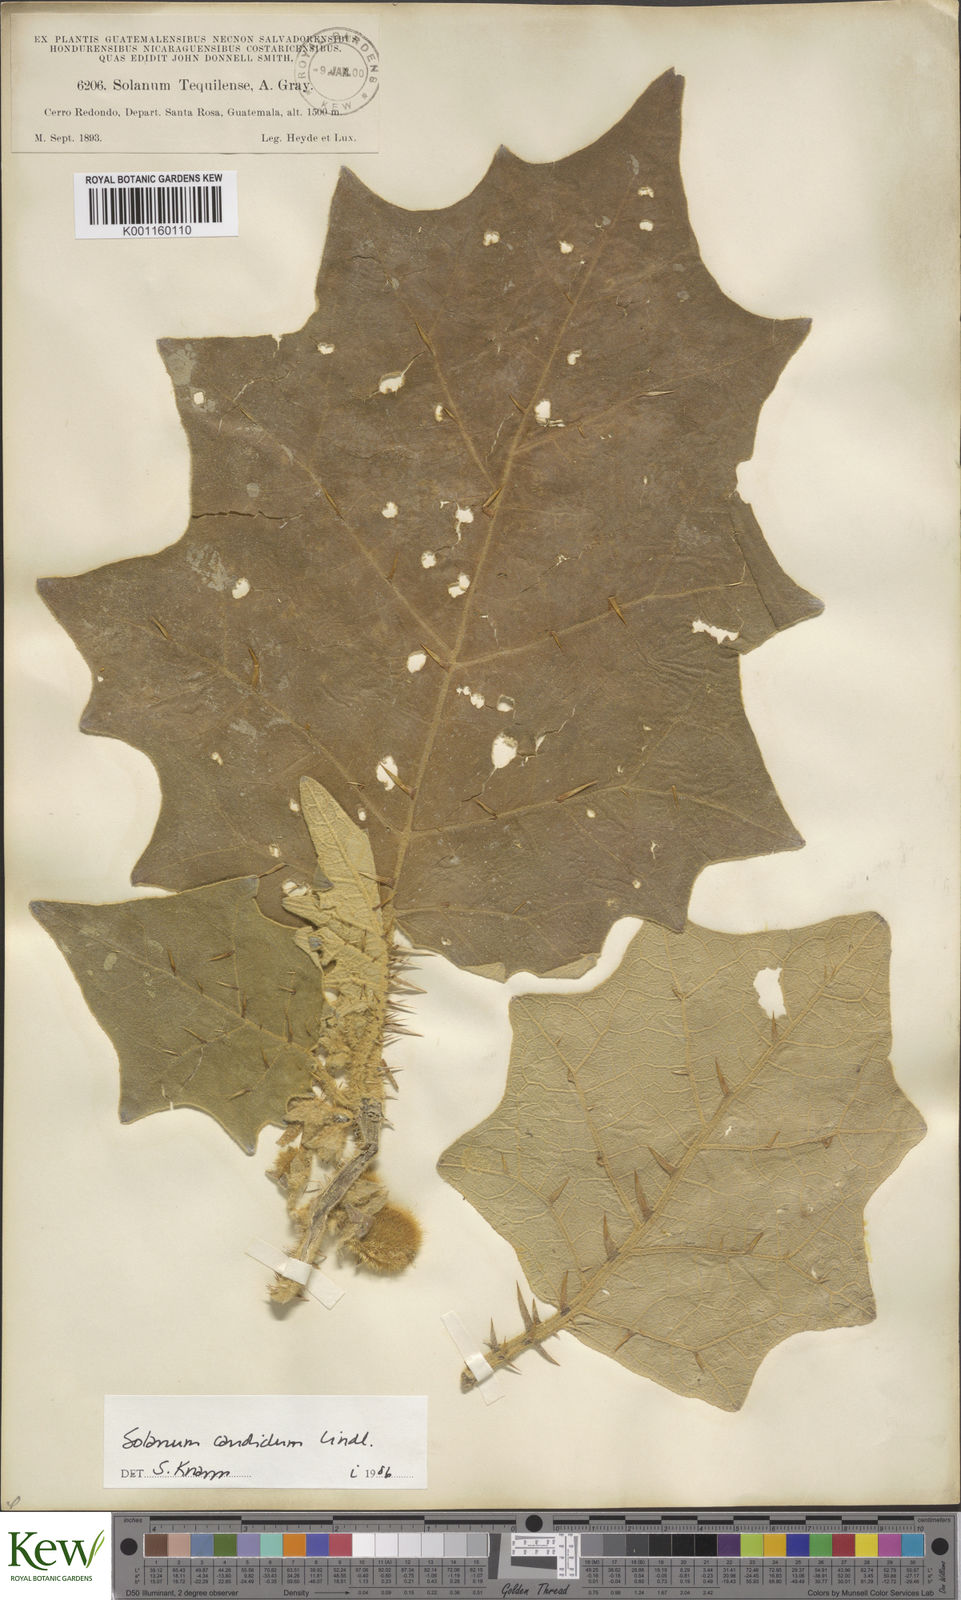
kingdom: Plantae
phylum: Tracheophyta
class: Magnoliopsida
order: Solanales
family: Solanaceae
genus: Solanum
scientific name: Solanum candidum
